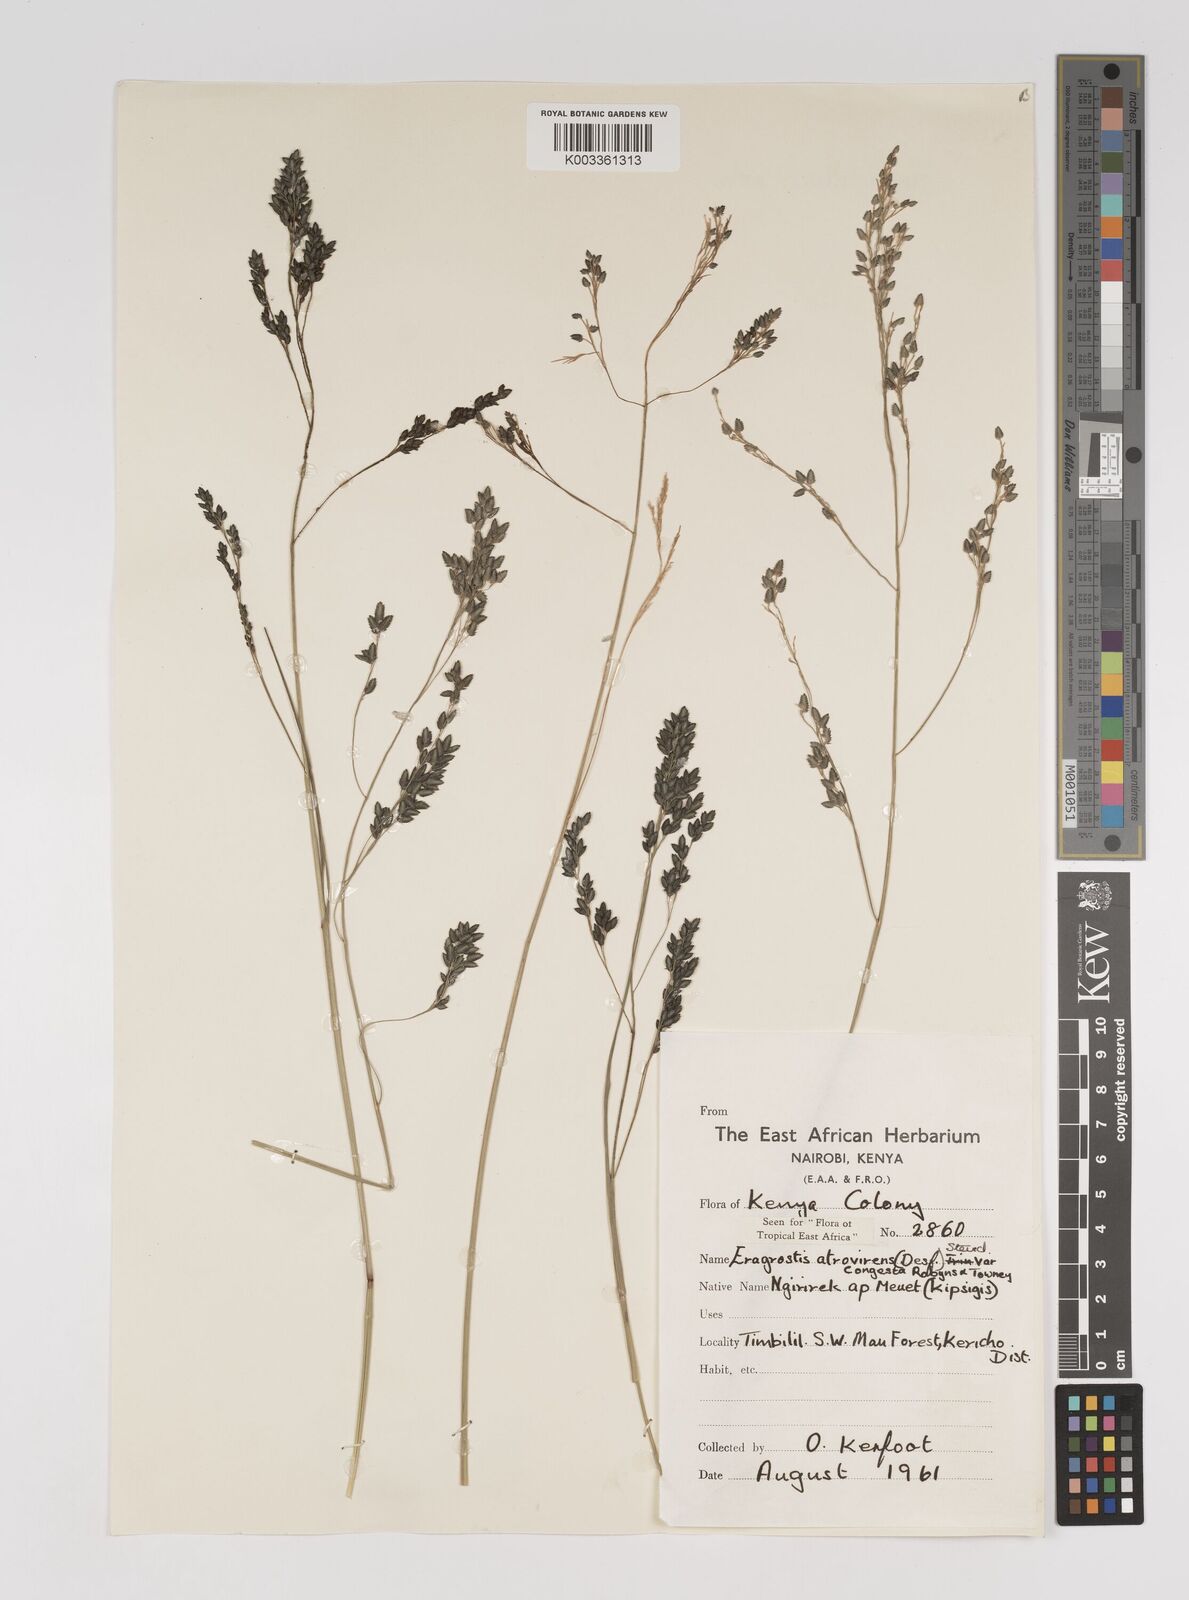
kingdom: Plantae
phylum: Tracheophyta
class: Liliopsida
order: Poales
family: Poaceae
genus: Eragrostis
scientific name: Eragrostis botryodes
